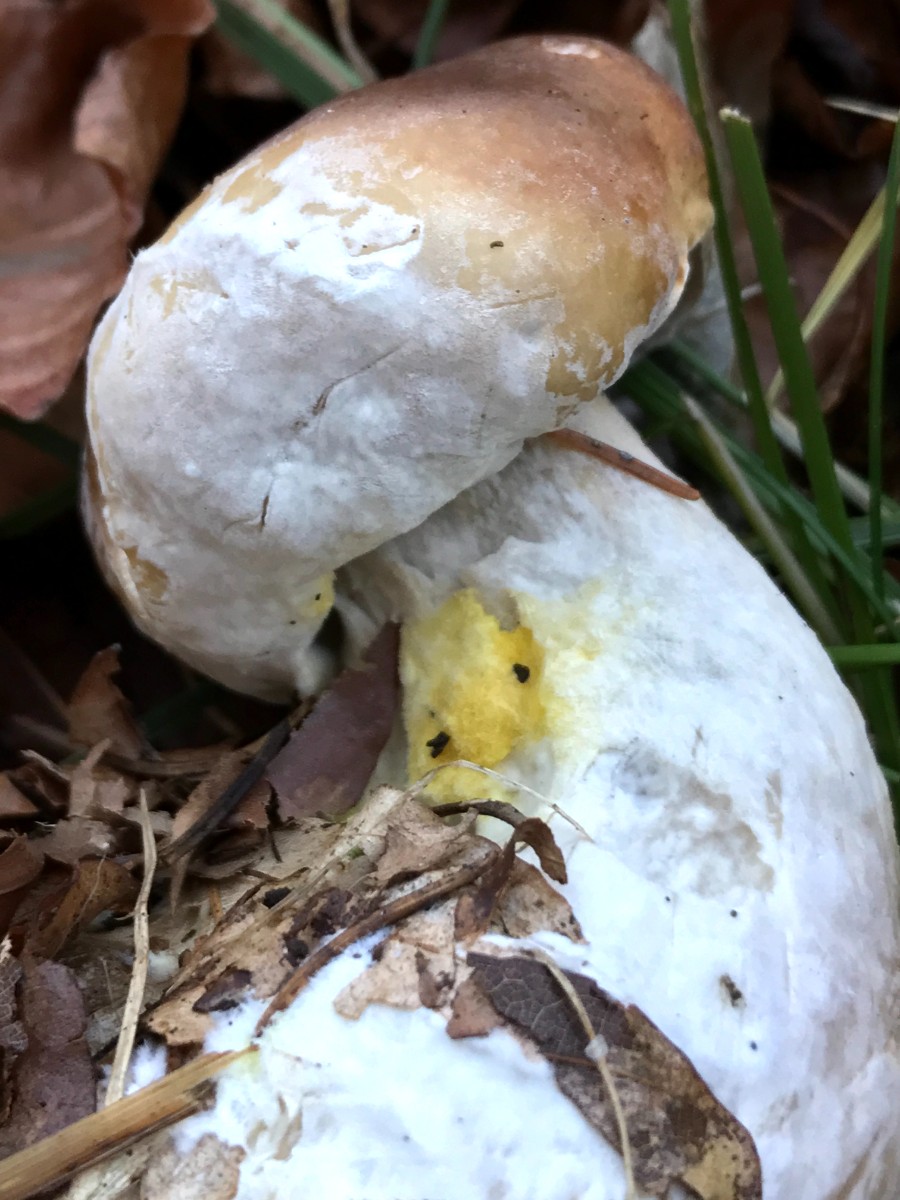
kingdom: Fungi
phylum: Ascomycota
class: Sordariomycetes
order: Hypocreales
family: Hypocreaceae
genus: Hypomyces
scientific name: Hypomyces chrysospermus
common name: gulskimmel-snylteskorpe
